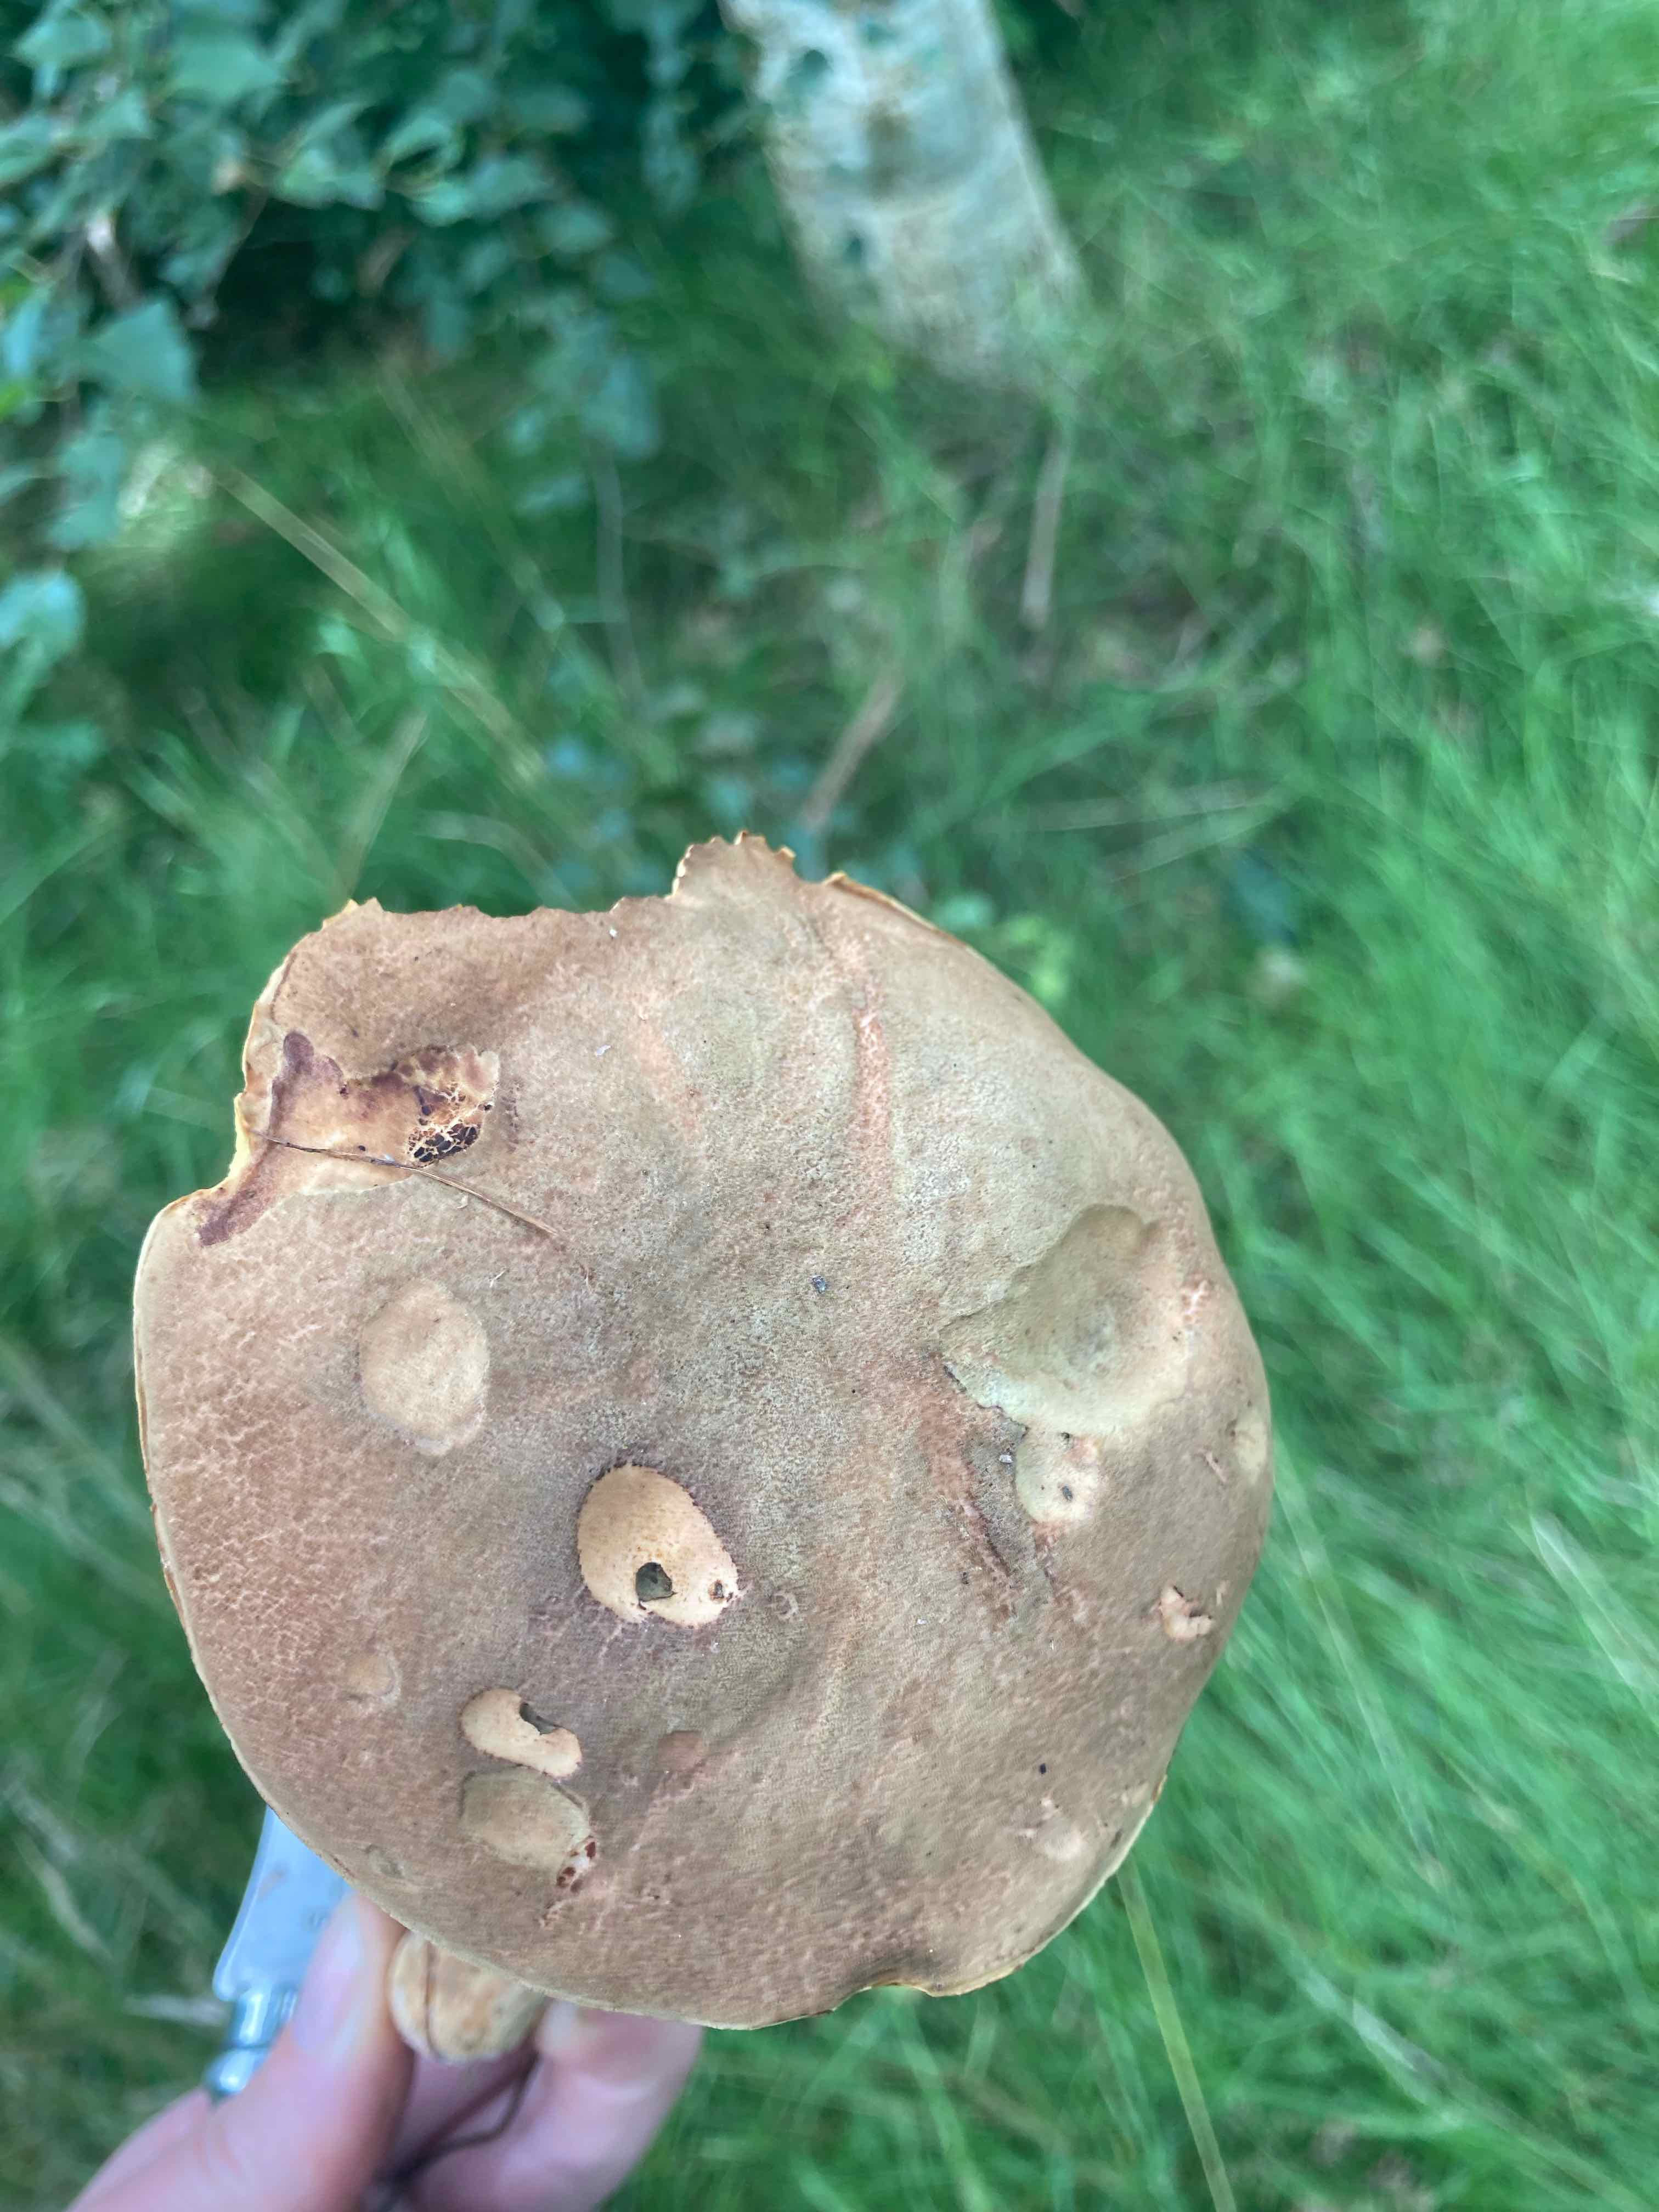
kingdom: Fungi
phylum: Basidiomycota
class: Agaricomycetes
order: Boletales
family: Boletaceae
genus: Xerocomus
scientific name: Xerocomus
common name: filtrørhat
